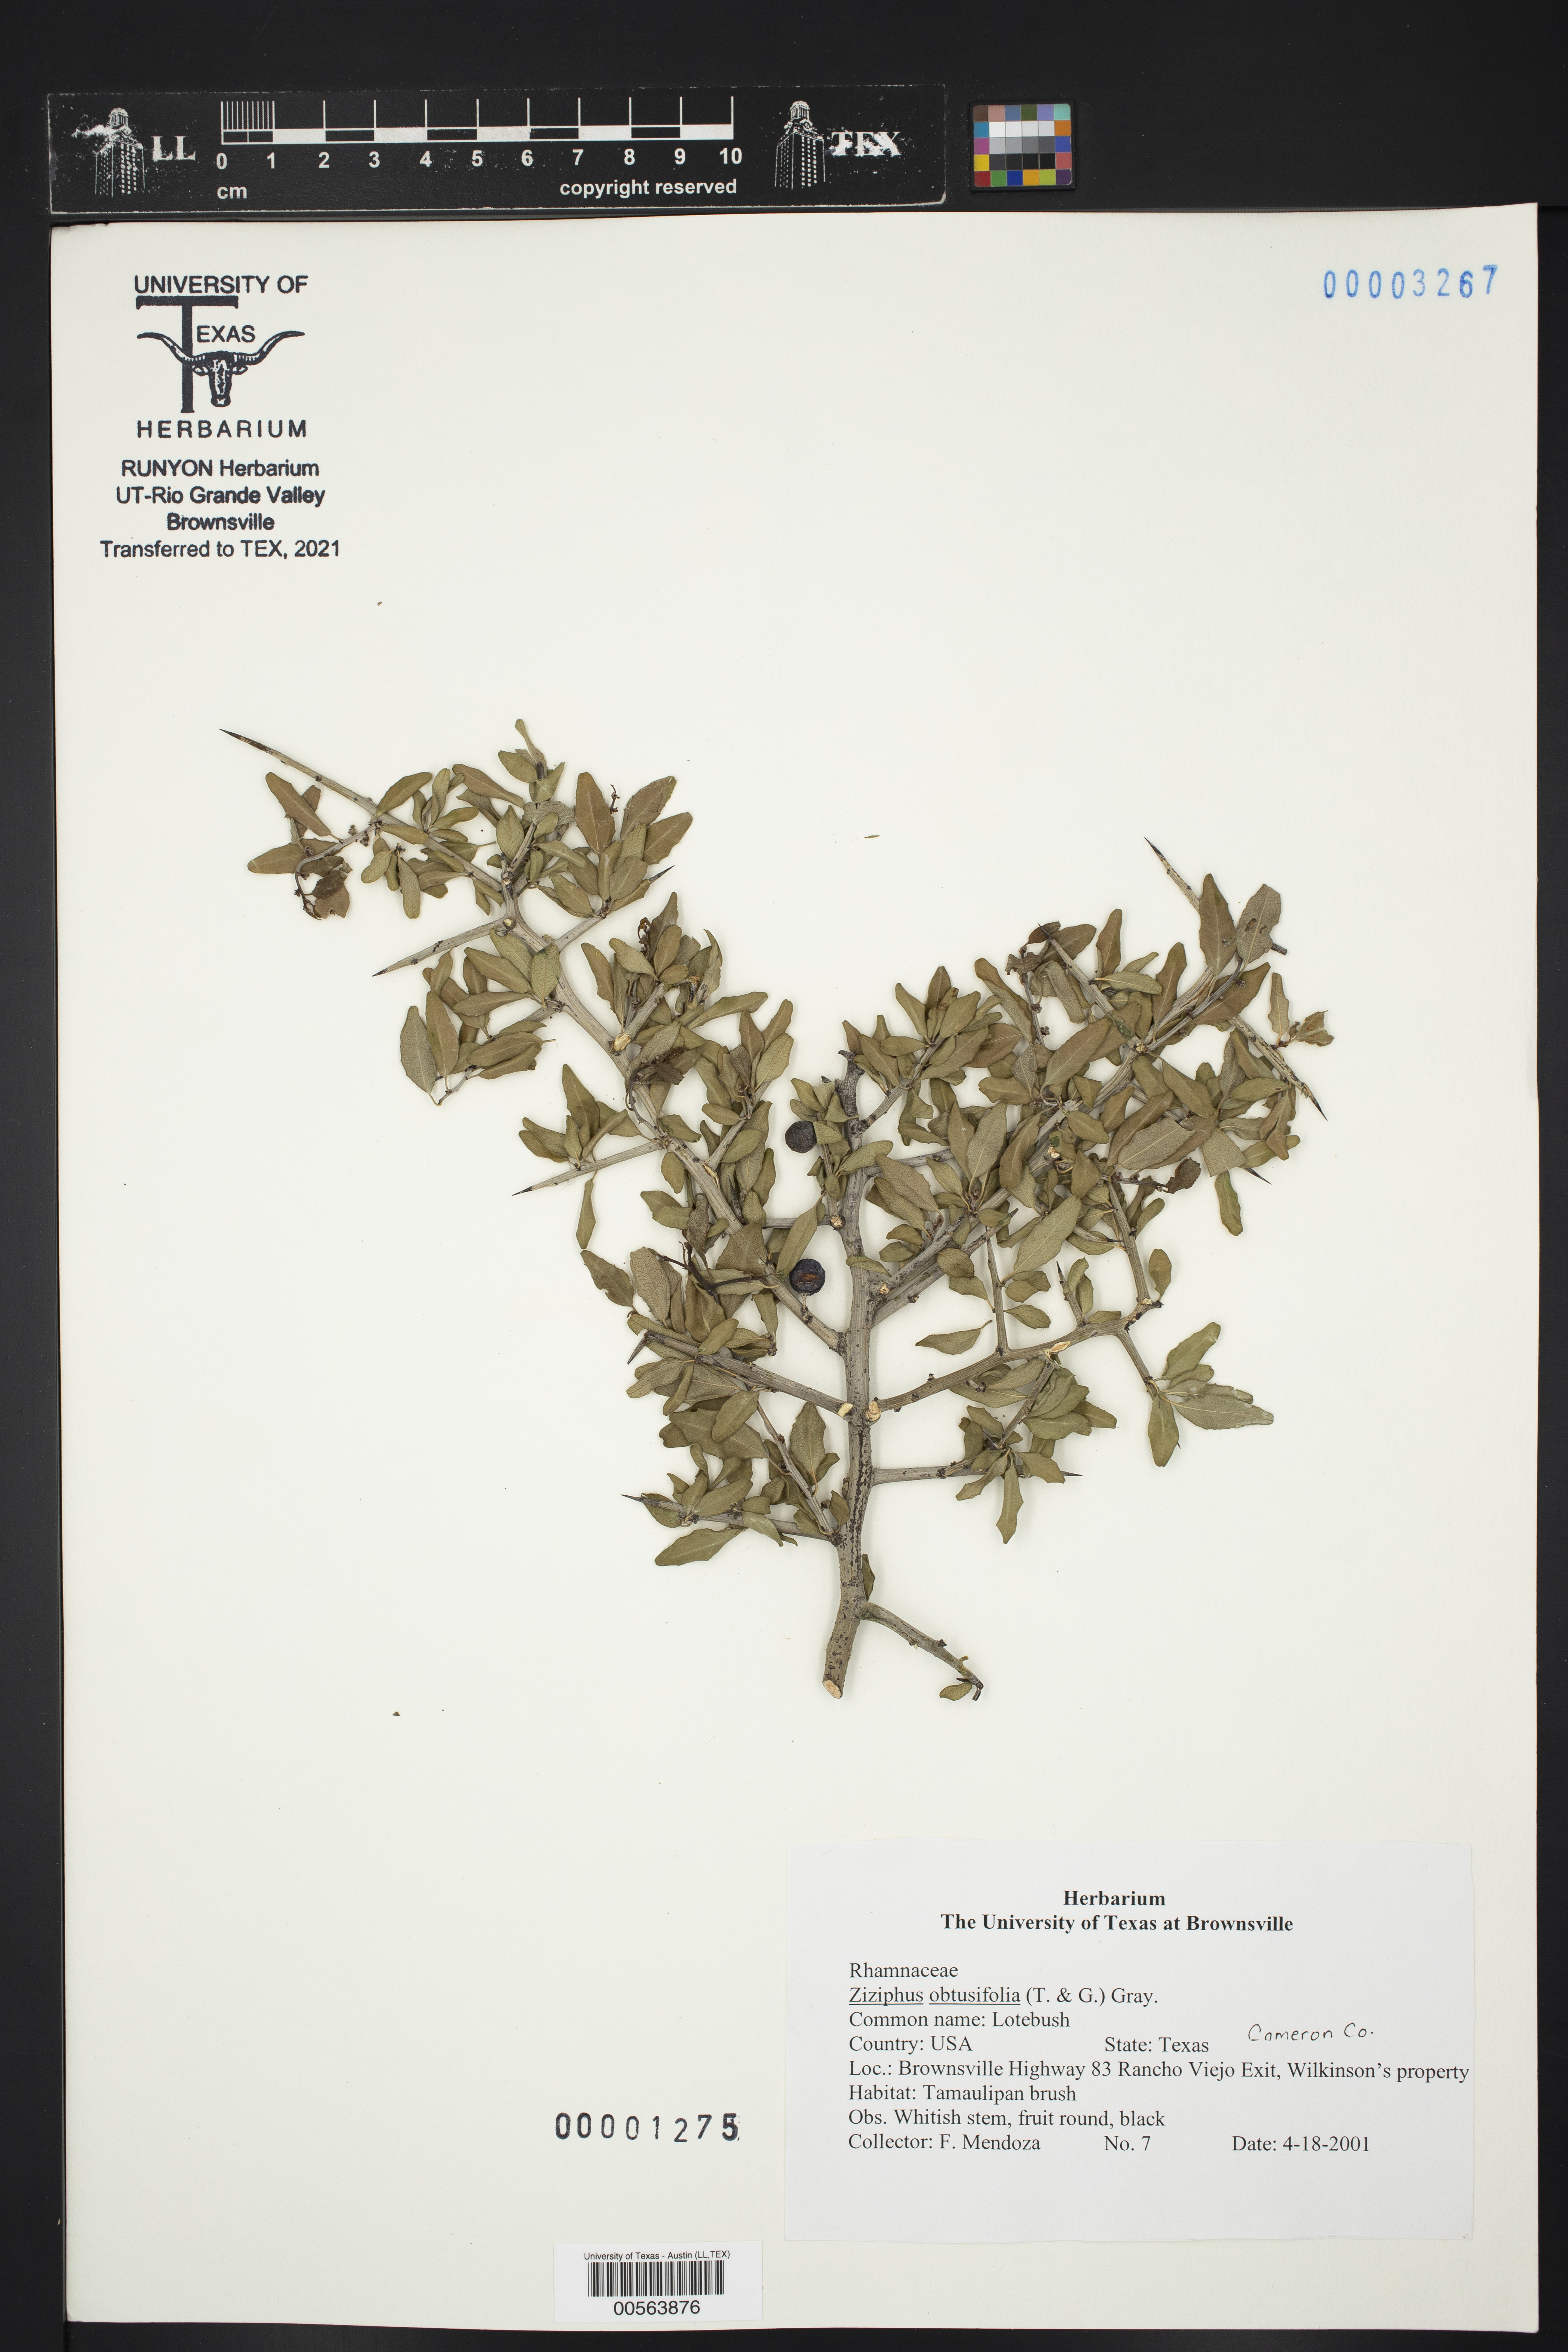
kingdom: Plantae
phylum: Tracheophyta
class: Magnoliopsida
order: Rosales
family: Rhamnaceae
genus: Sarcomphalus
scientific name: Sarcomphalus obtusifolius
